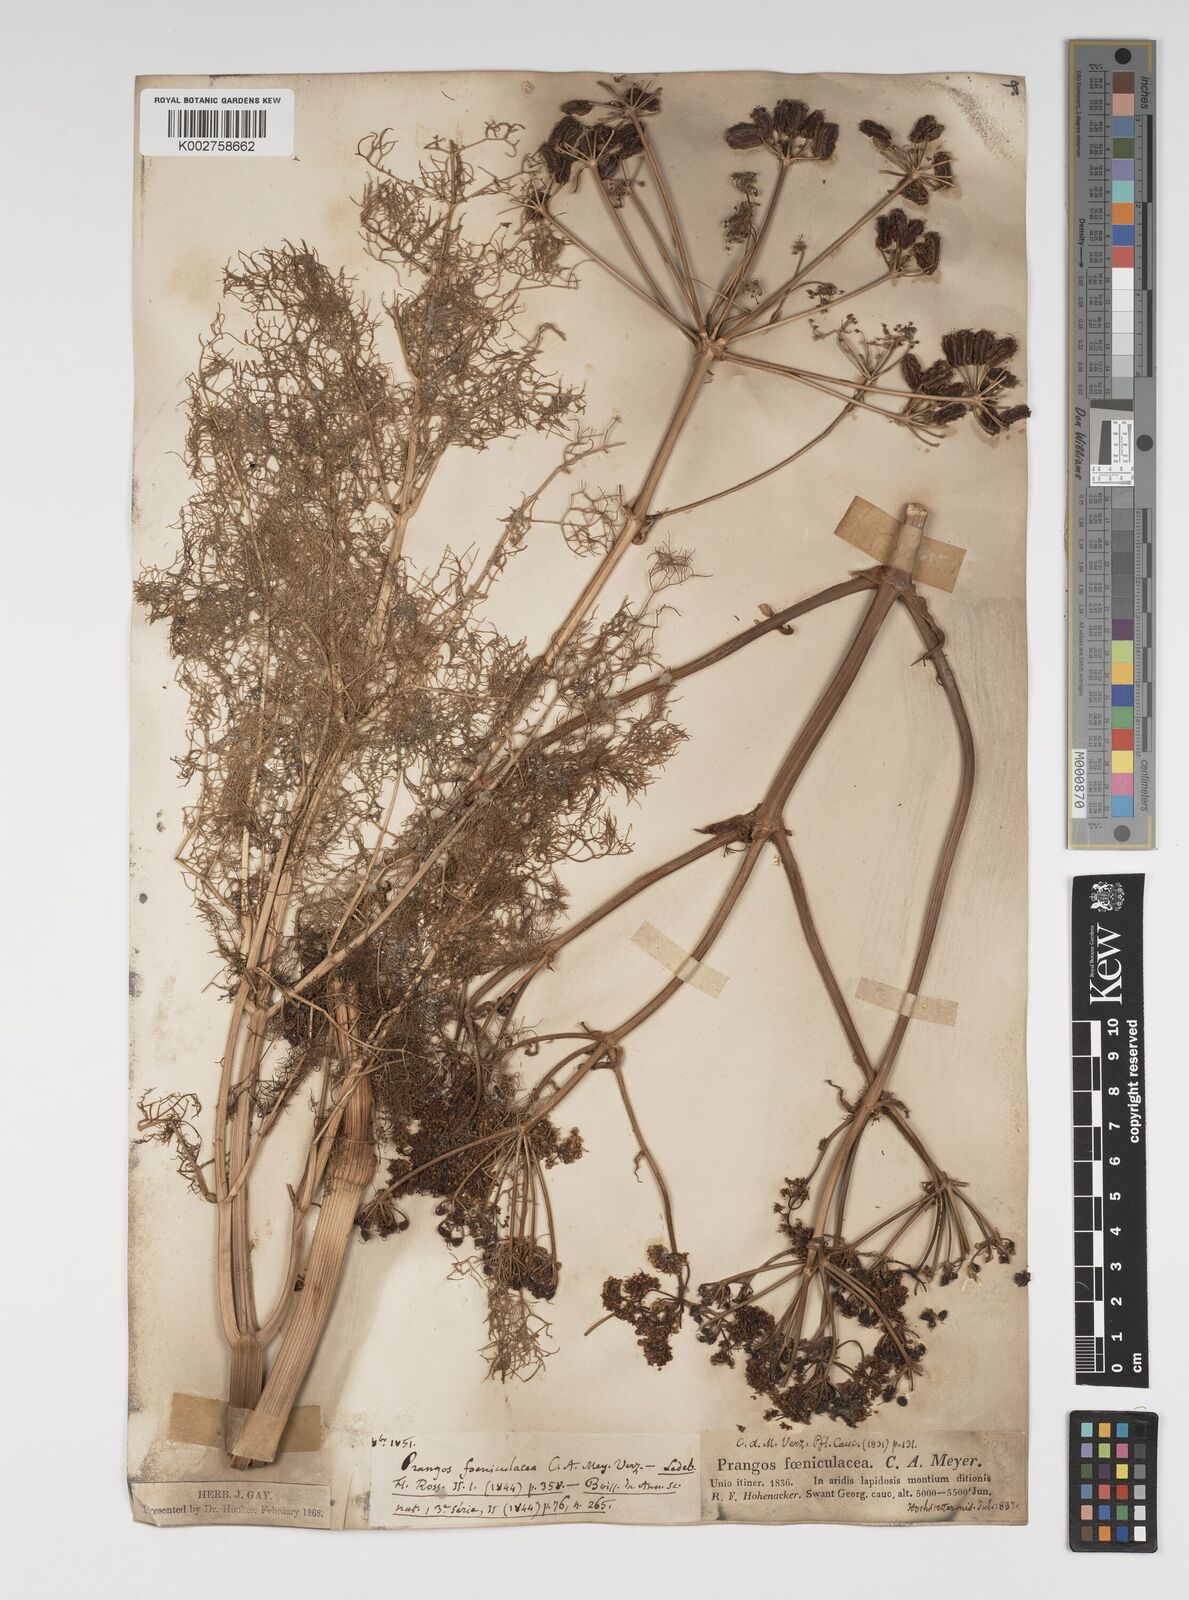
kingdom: Plantae
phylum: Tracheophyta
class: Magnoliopsida
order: Apiales
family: Apiaceae
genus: Prangos
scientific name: Prangos ferulacea
